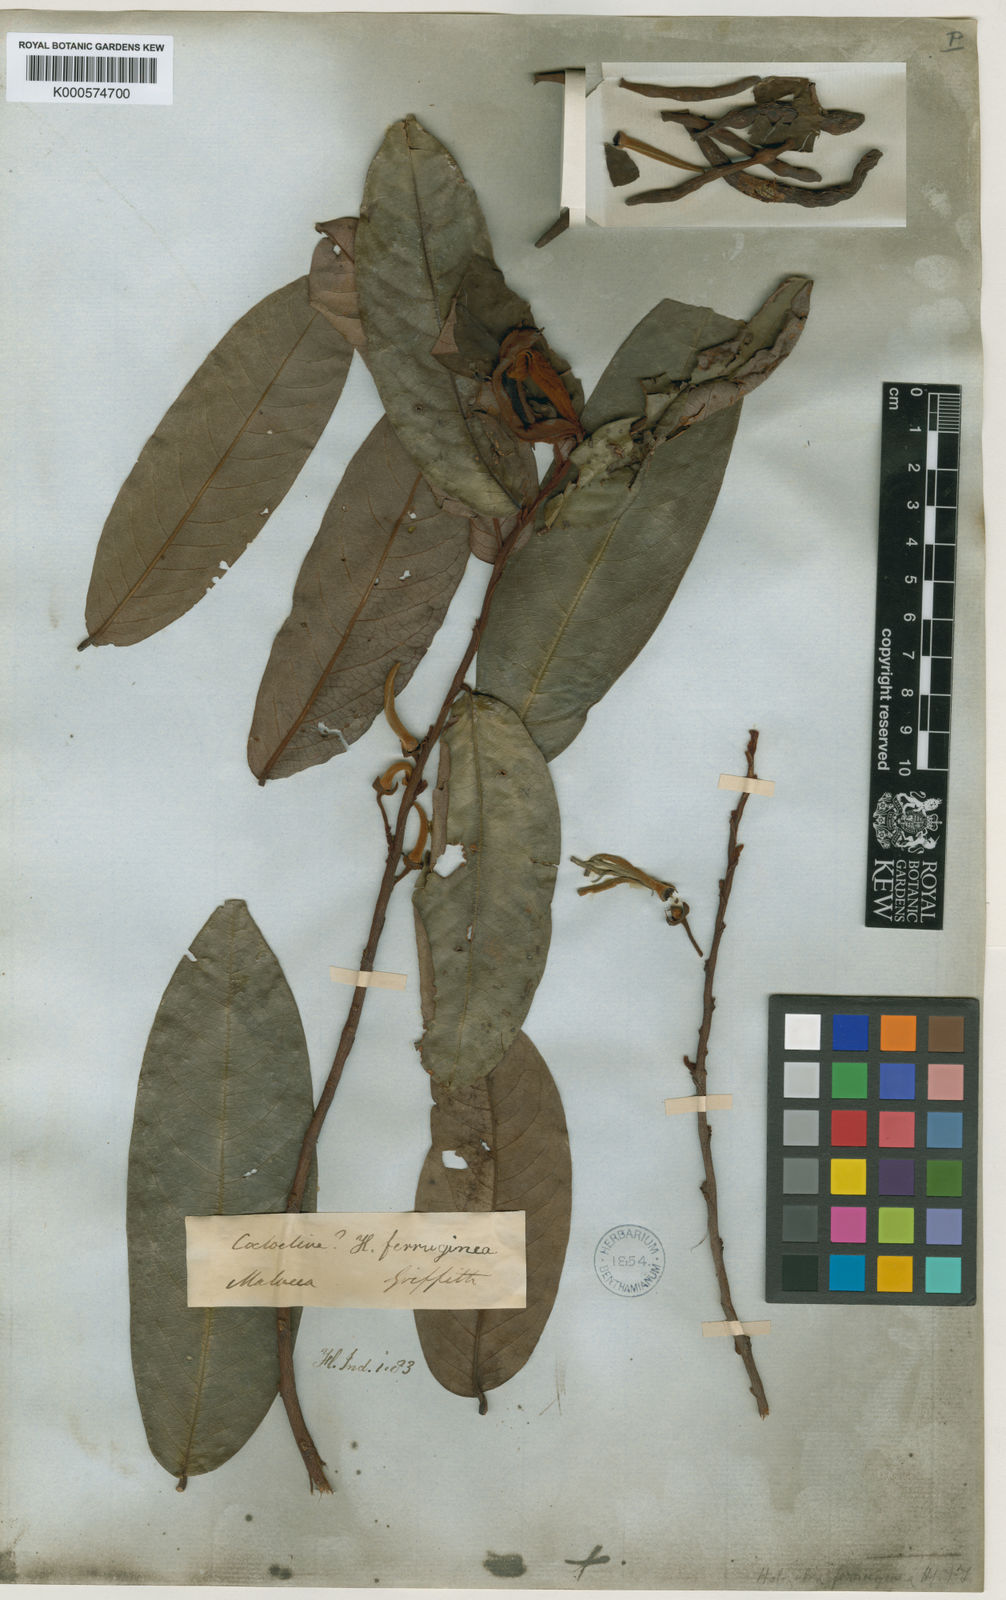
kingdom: Plantae
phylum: Tracheophyta
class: Magnoliopsida
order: Magnoliales
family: Annonaceae
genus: Xylopia
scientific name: Xylopia ferruginea
